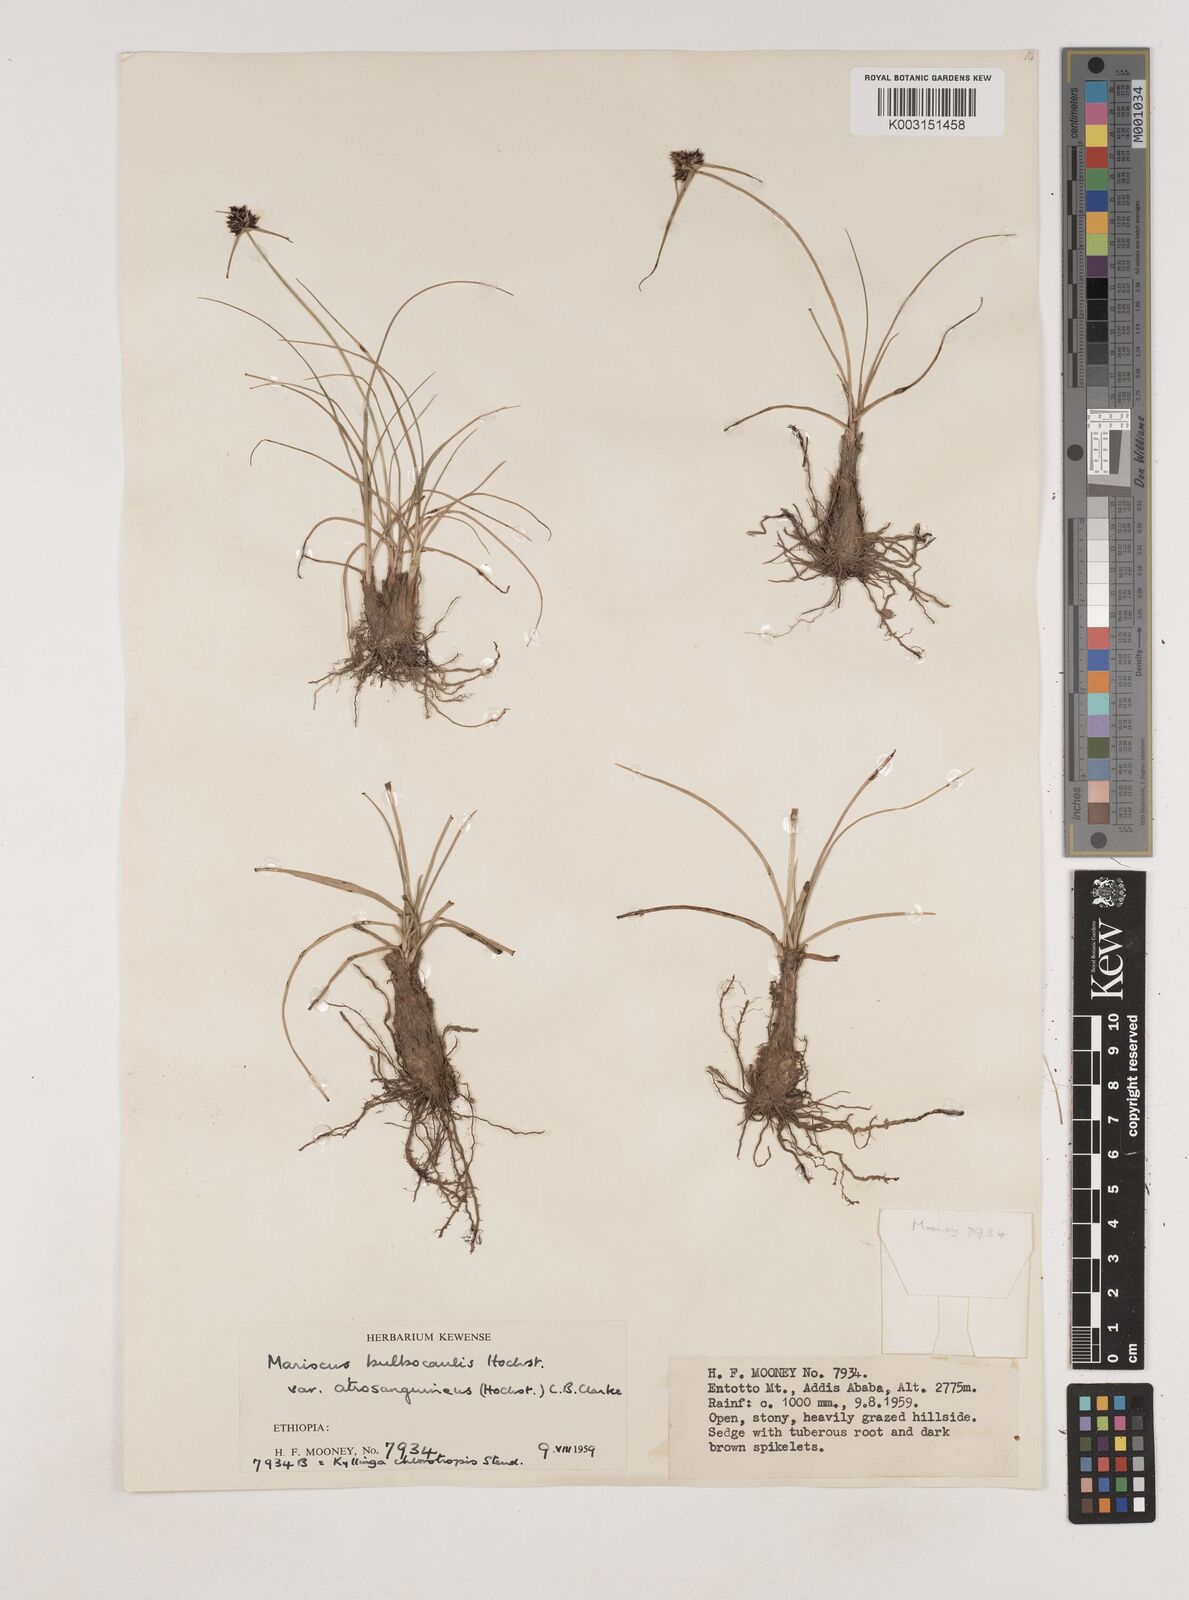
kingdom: Plantae
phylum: Tracheophyta
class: Liliopsida
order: Poales
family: Cyperaceae
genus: Cyperus
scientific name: Cyperus plateilema
